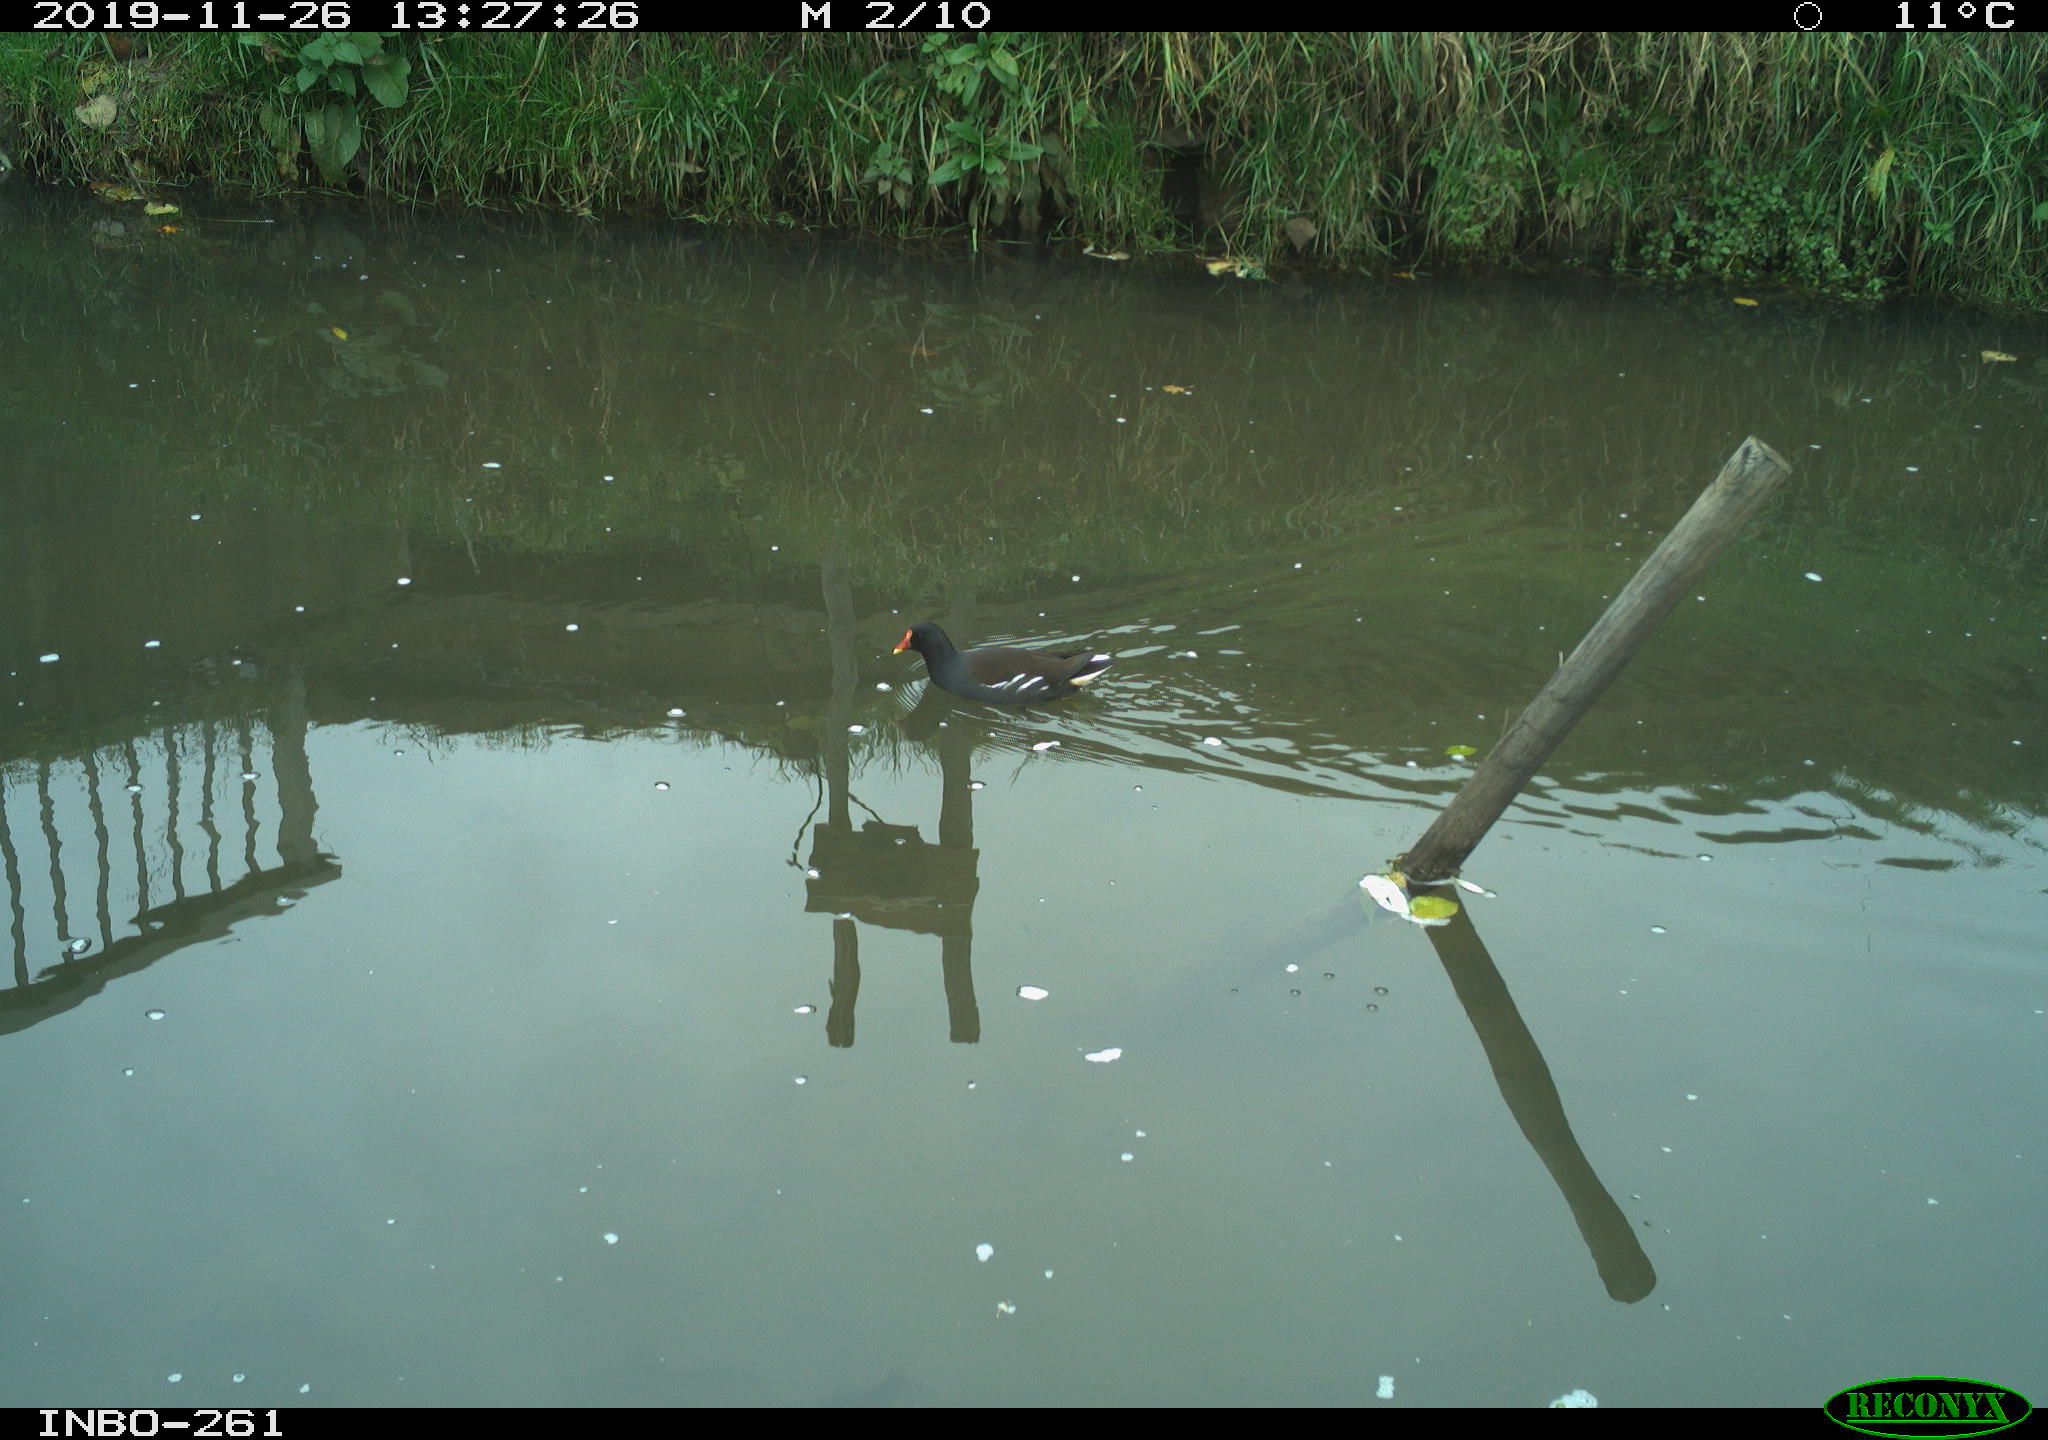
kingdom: Animalia
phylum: Chordata
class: Aves
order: Gruiformes
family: Rallidae
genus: Gallinula
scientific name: Gallinula chloropus
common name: Common moorhen
